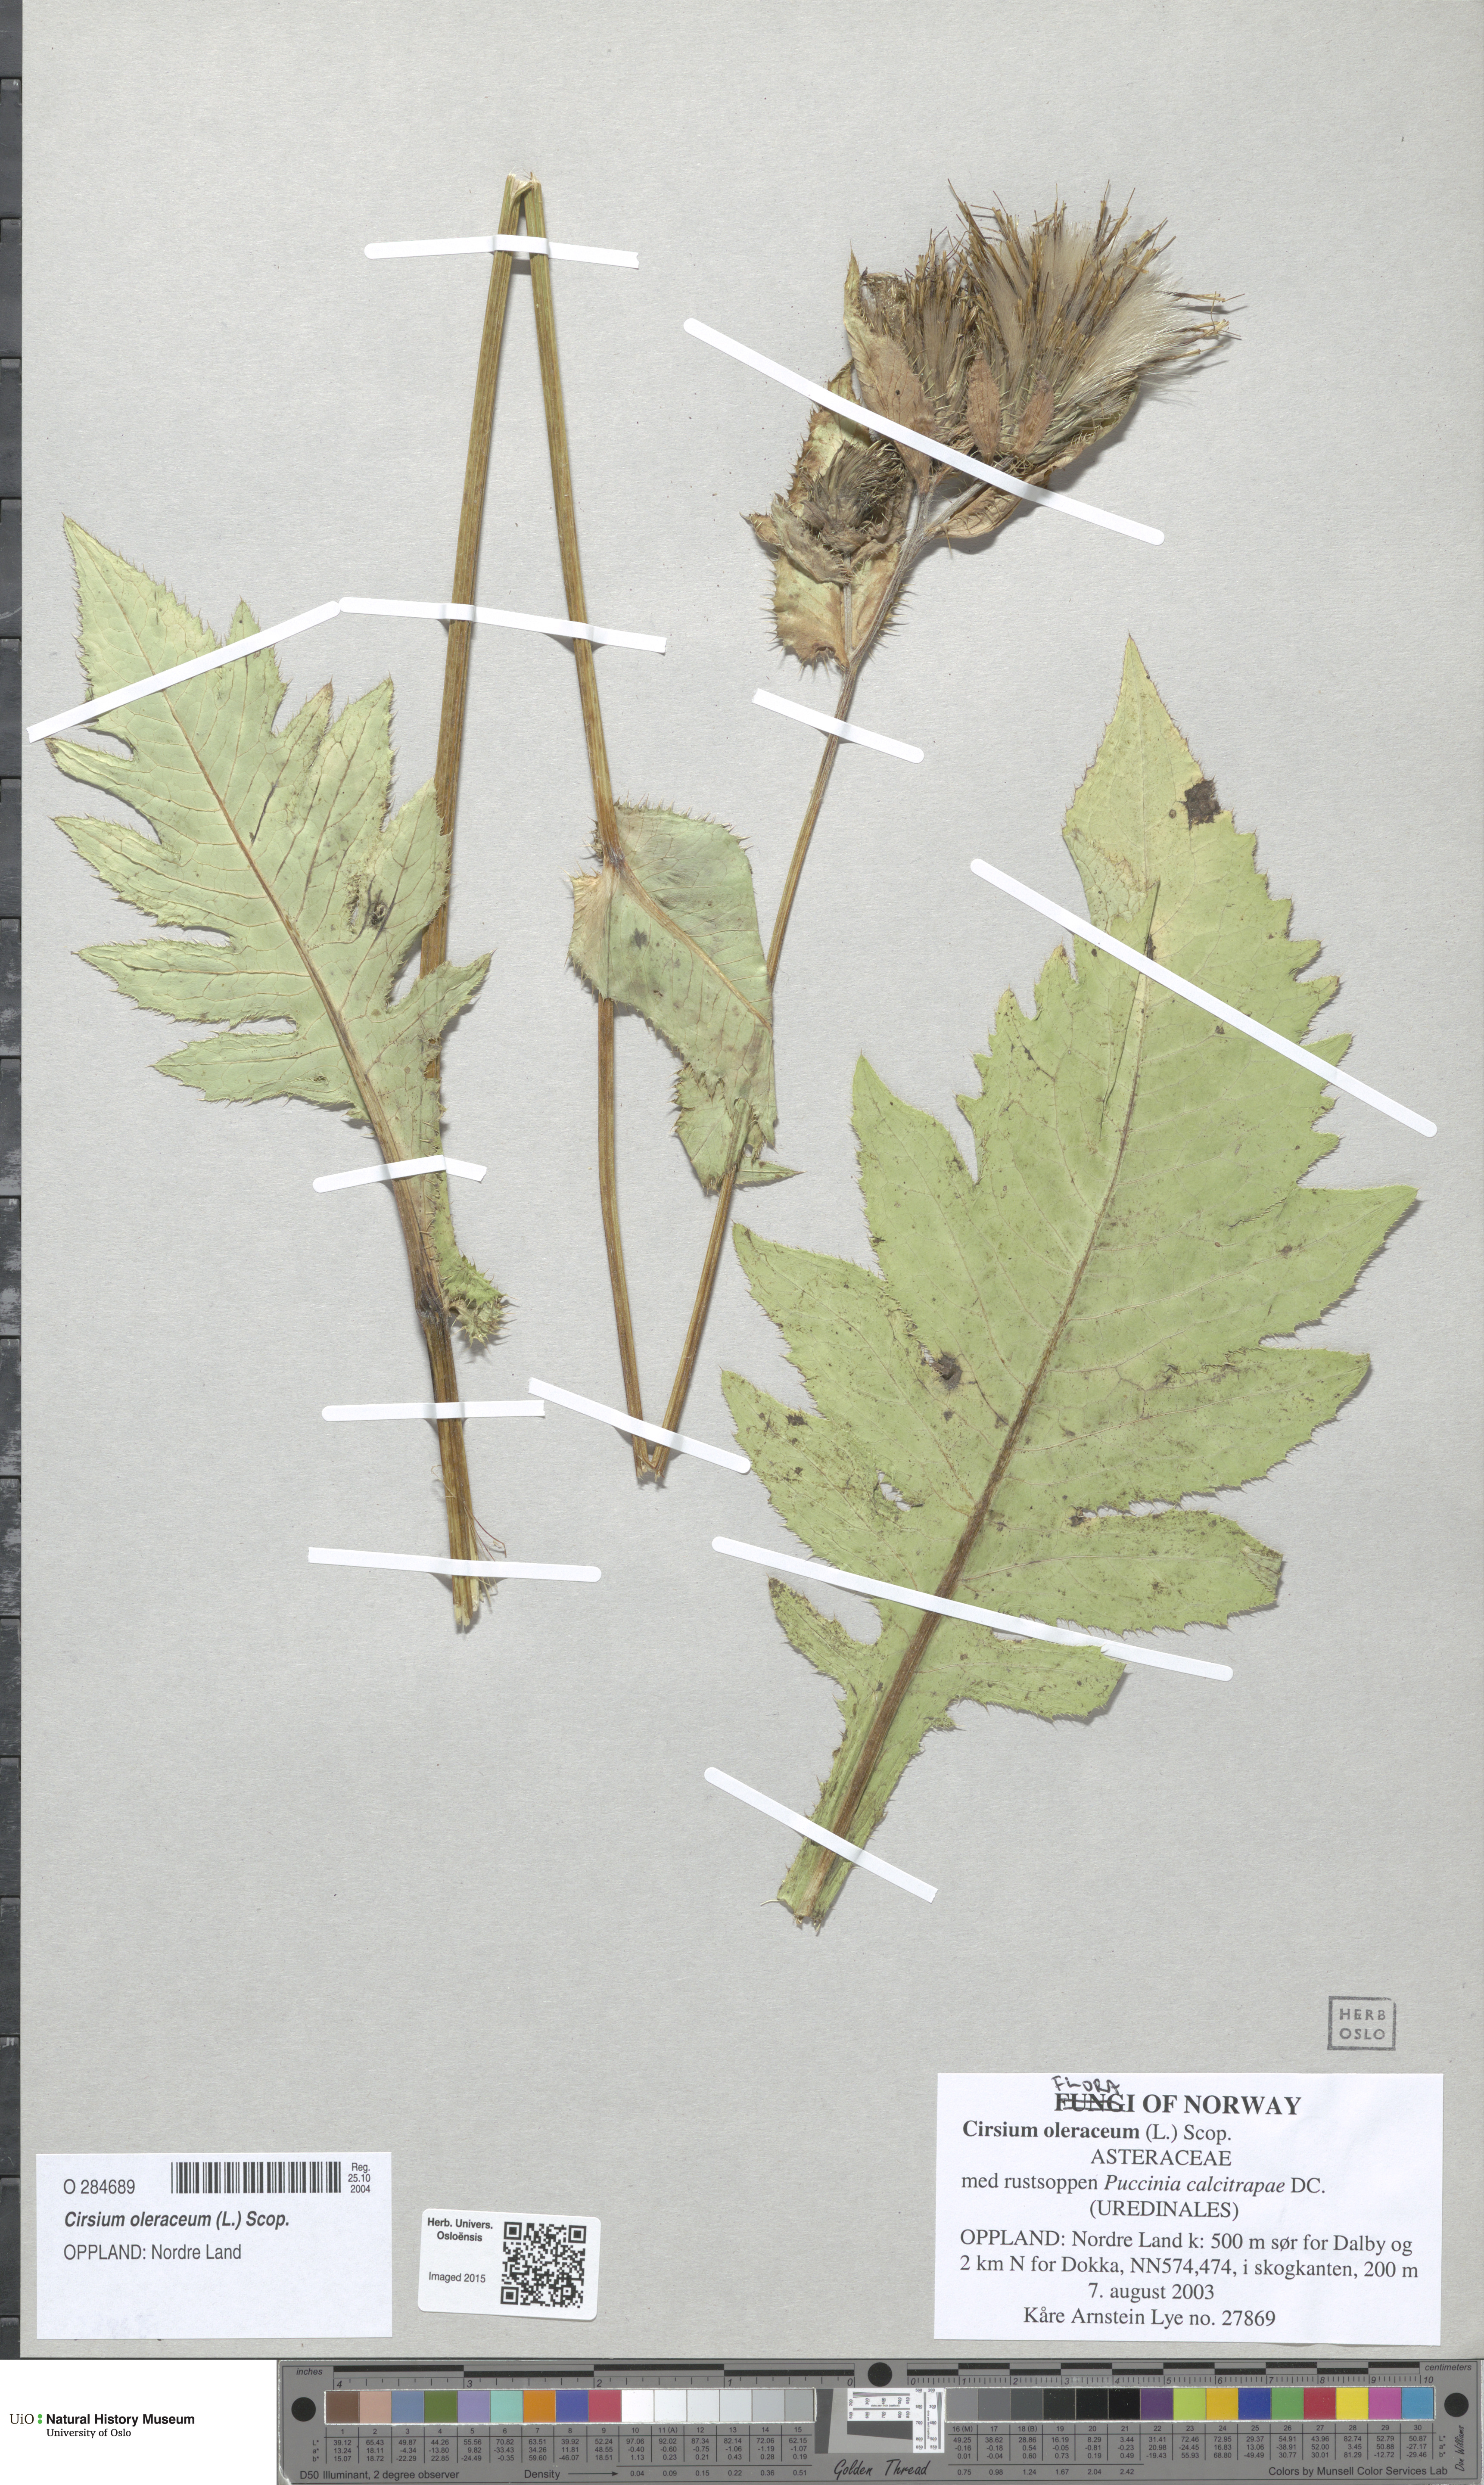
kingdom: Plantae
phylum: Tracheophyta
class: Magnoliopsida
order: Asterales
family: Asteraceae
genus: Cirsium
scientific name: Cirsium oleraceum
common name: Cabbage thistle
